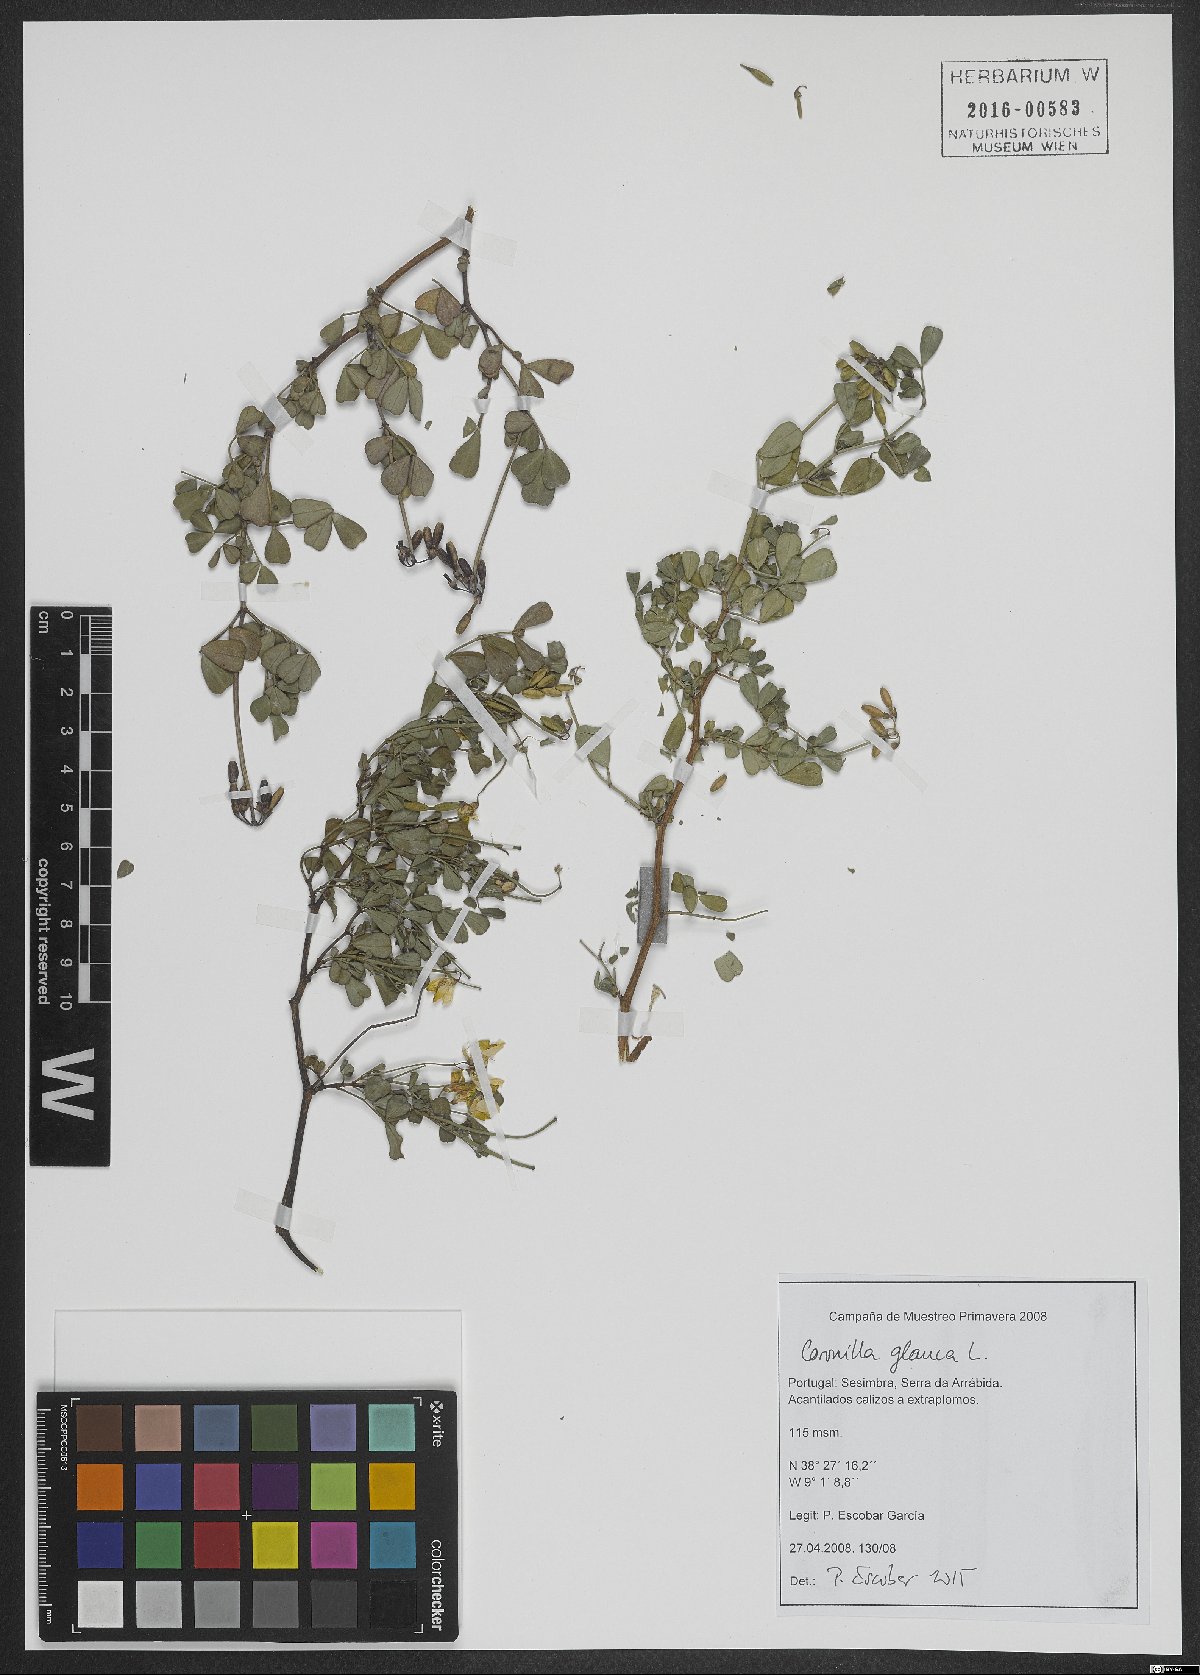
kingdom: Plantae
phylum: Tracheophyta
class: Magnoliopsida
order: Fabales
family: Fabaceae
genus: Coronilla
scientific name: Coronilla valentina
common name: Shrubby scorpion-vetch
